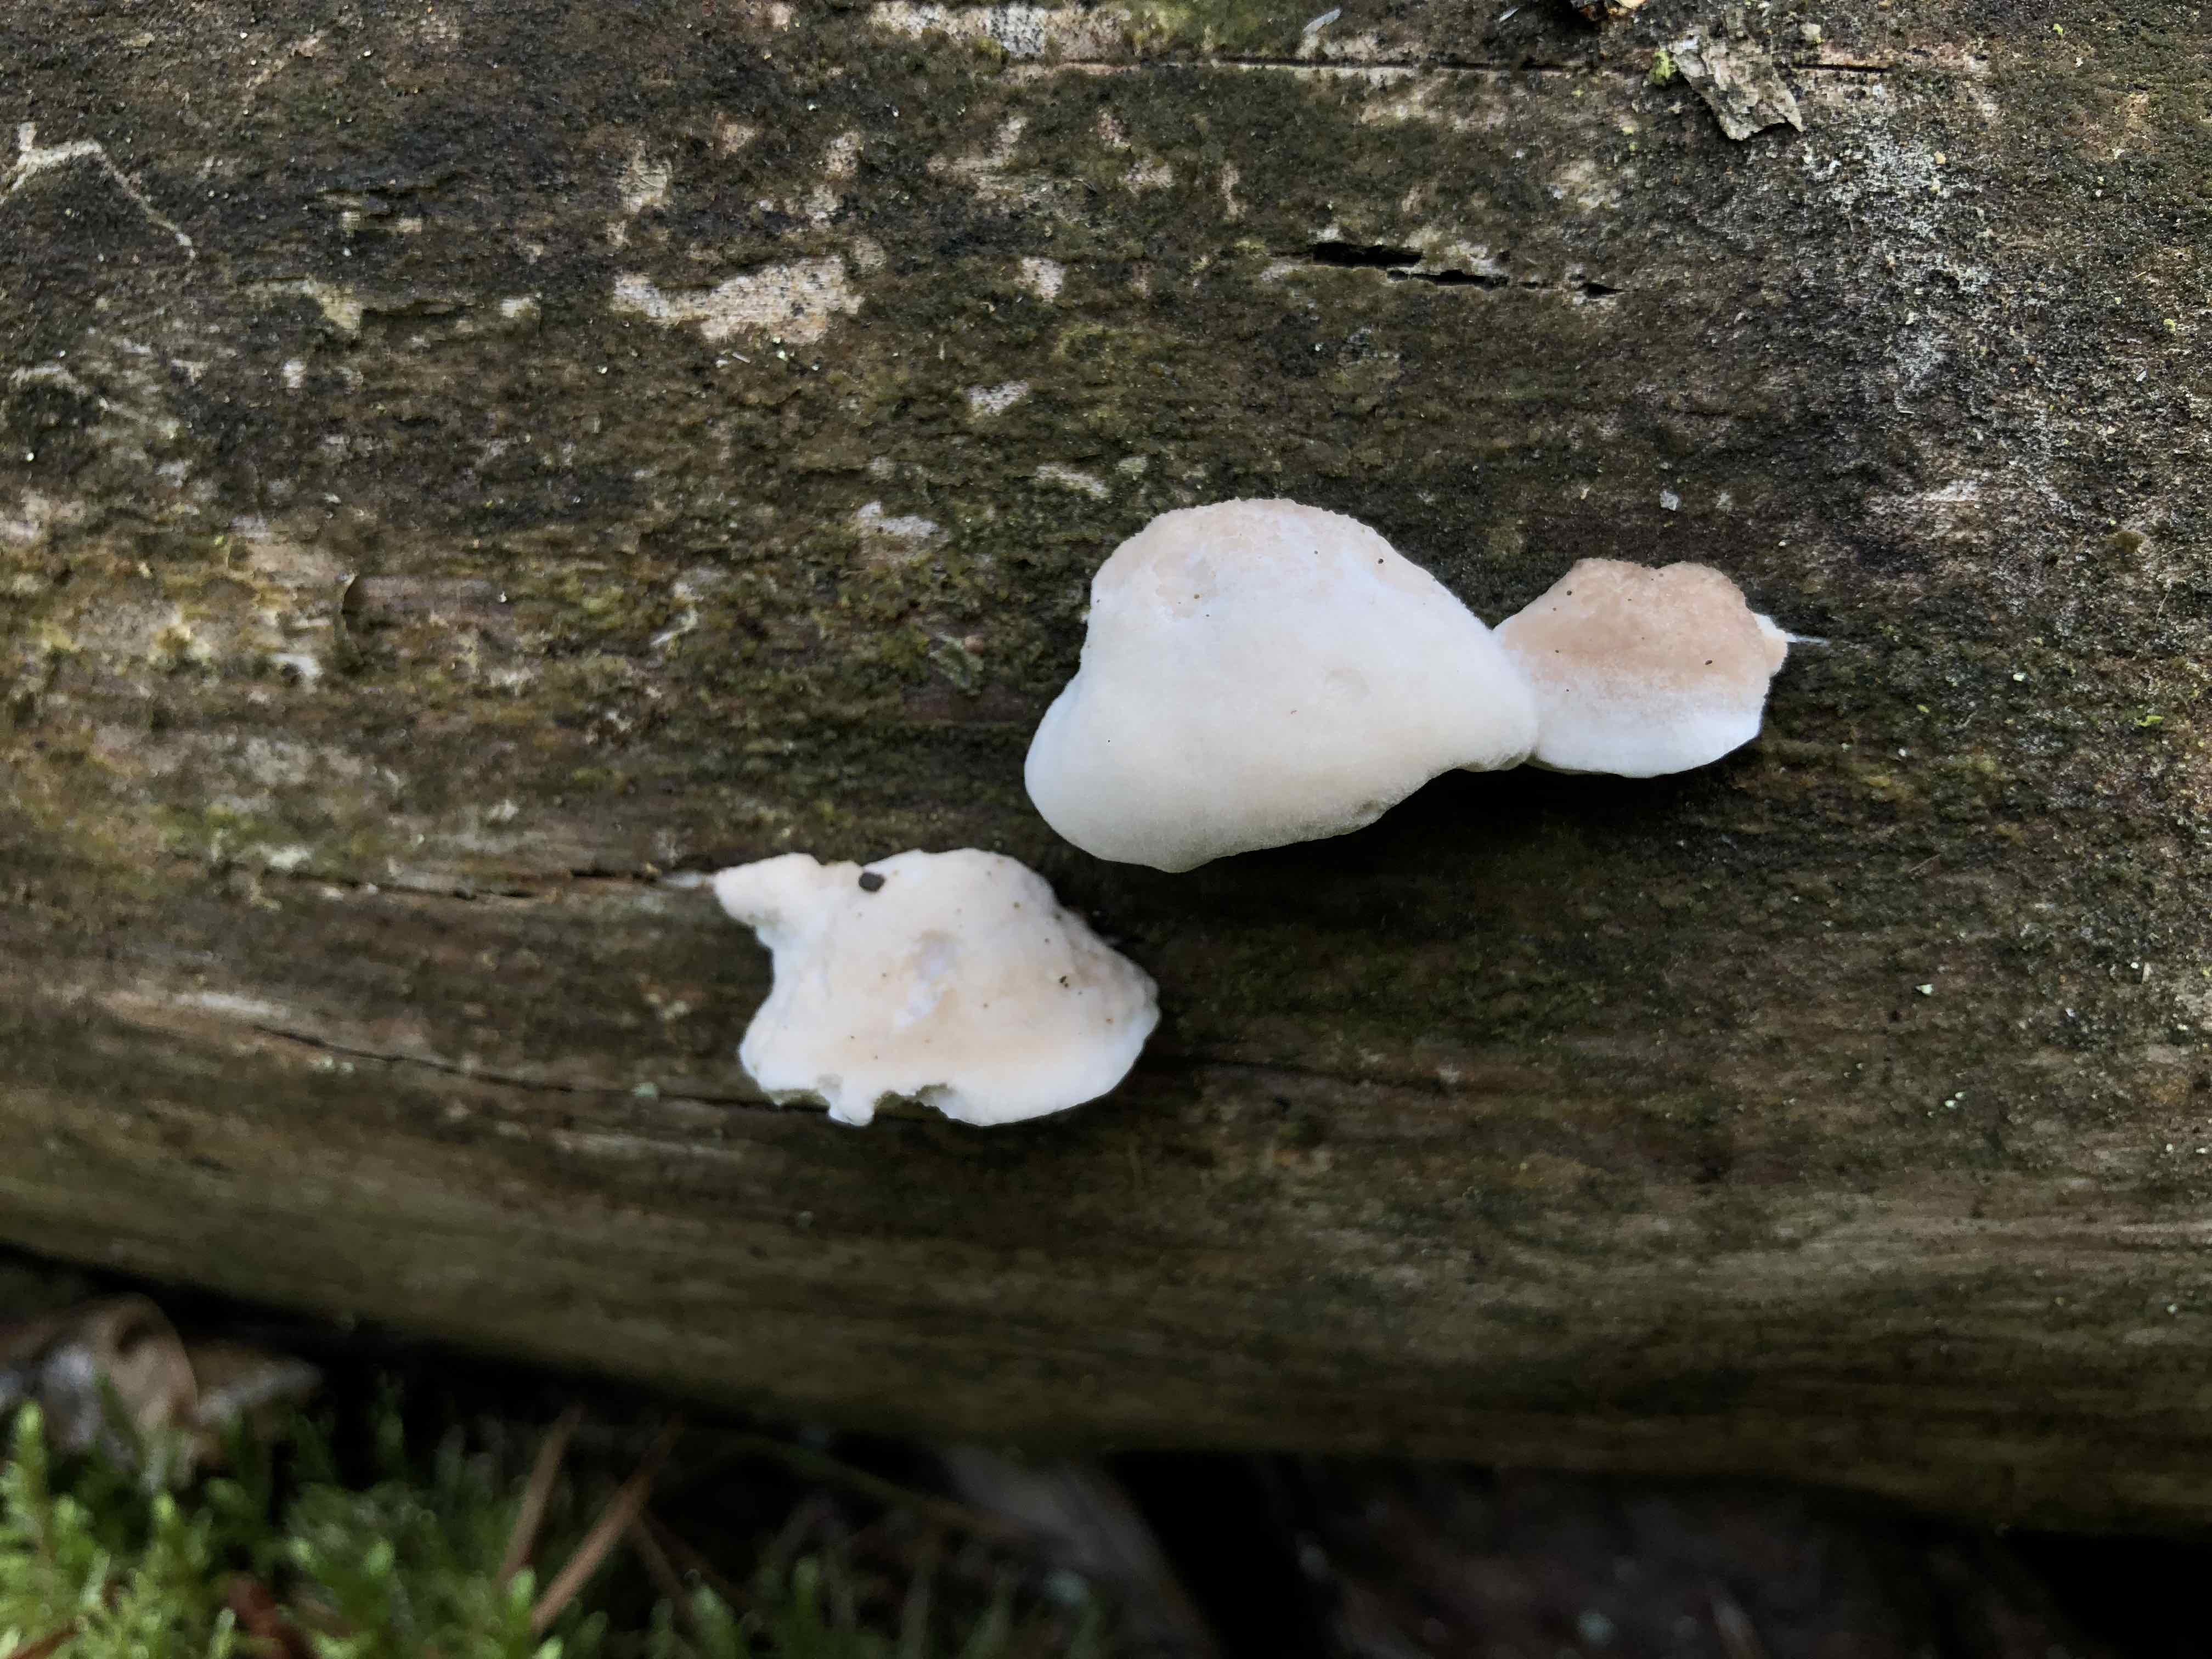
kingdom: Fungi
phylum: Basidiomycota
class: Agaricomycetes
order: Polyporales
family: Incrustoporiaceae
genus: Tyromyces
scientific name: Tyromyces lacteus
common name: mælkehvid kødporesvamp
